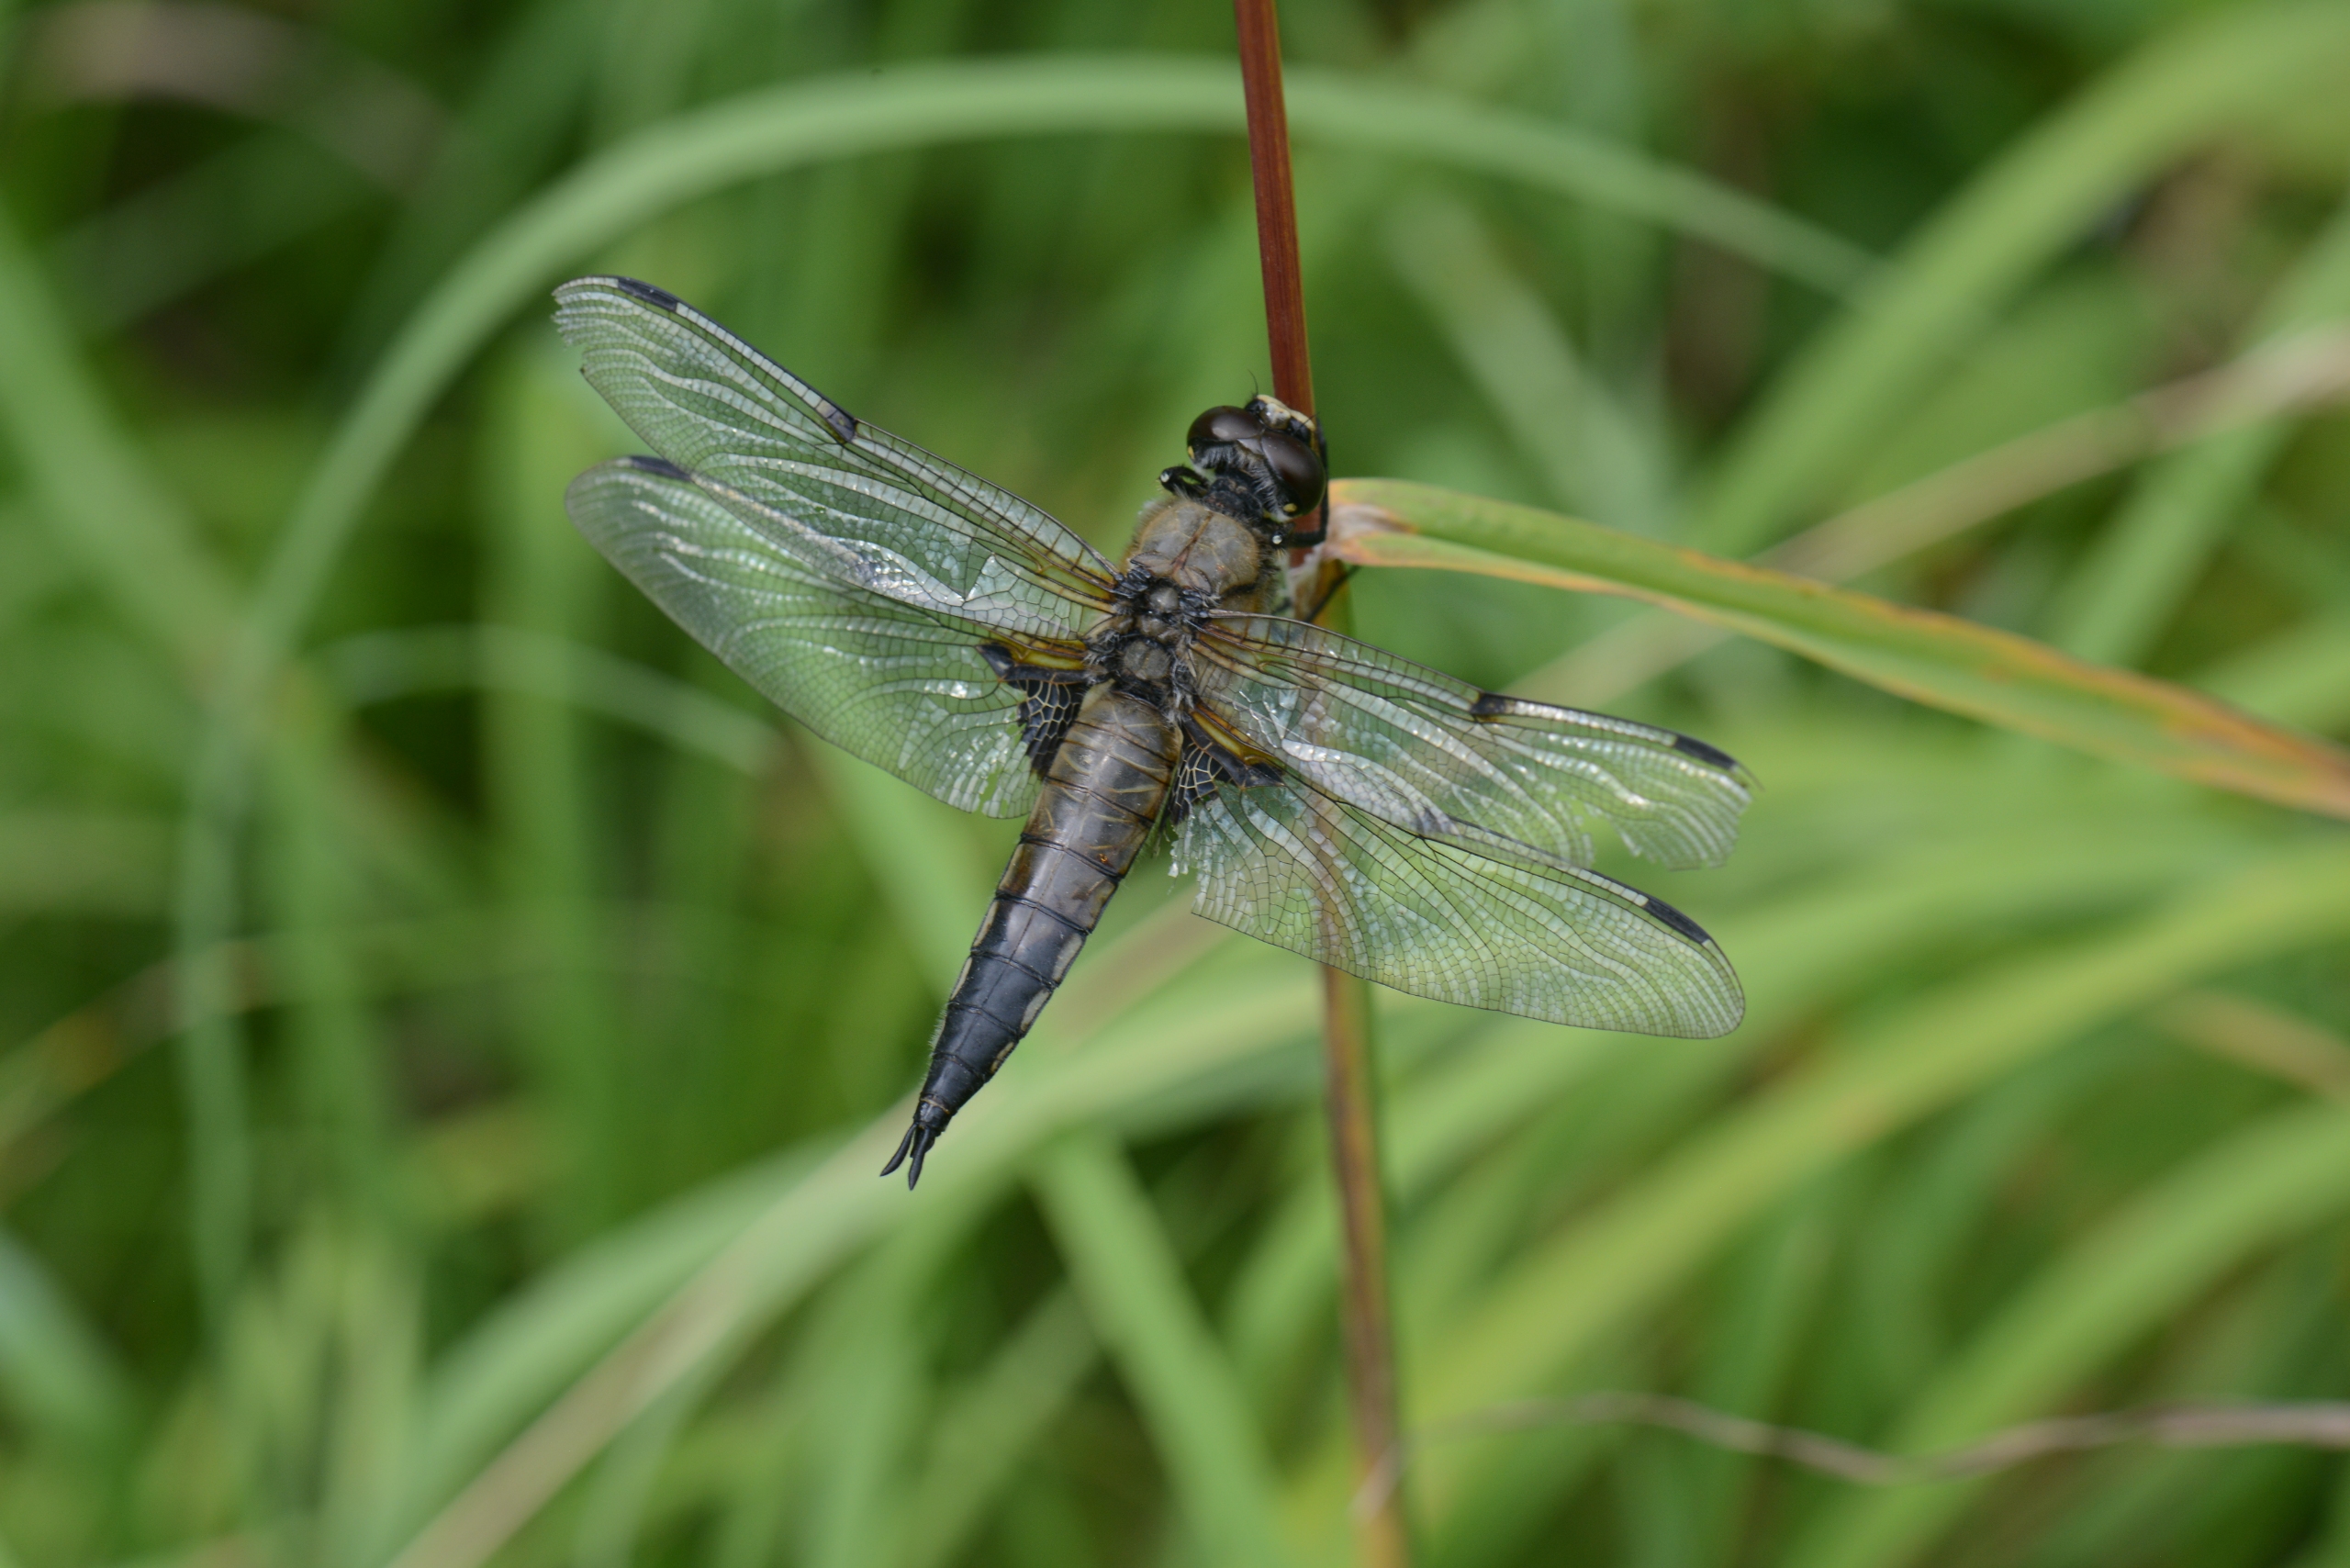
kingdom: Animalia
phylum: Arthropoda
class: Insecta
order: Odonata
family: Libellulidae
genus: Libellula
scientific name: Libellula quadrimaculata
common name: Fireplettet libel
